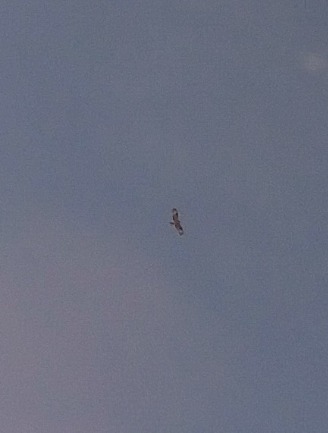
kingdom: Animalia
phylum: Chordata
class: Aves
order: Accipitriformes
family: Accipitridae
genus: Buteo
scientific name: Buteo buteo
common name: Musvåge
